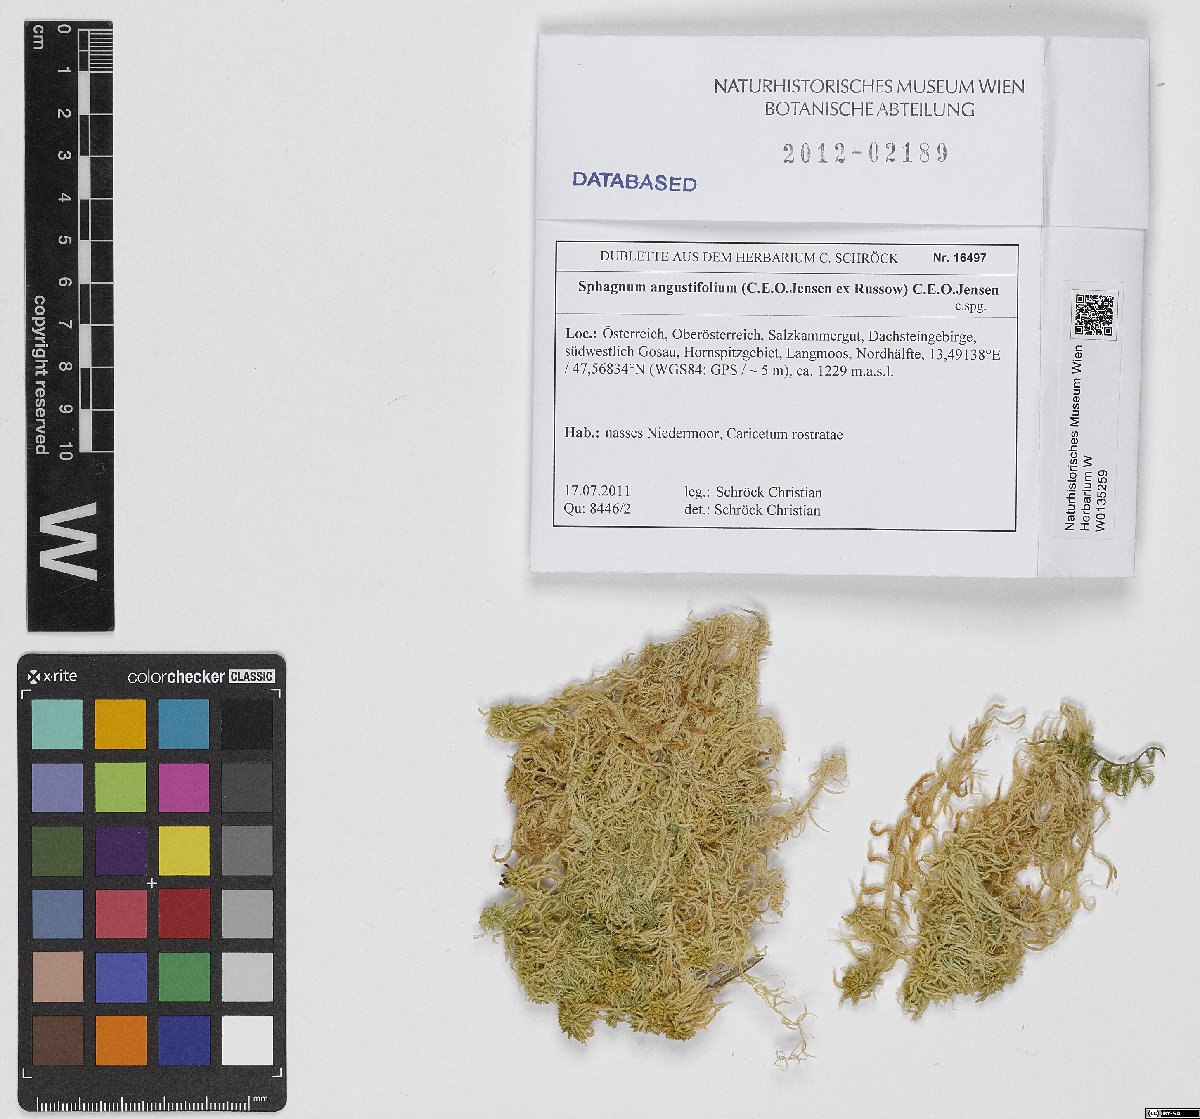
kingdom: Plantae
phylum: Bryophyta
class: Sphagnopsida
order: Sphagnales
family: Sphagnaceae
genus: Sphagnum
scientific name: Sphagnum angustifolium
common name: Narrow-leaved peat moss
